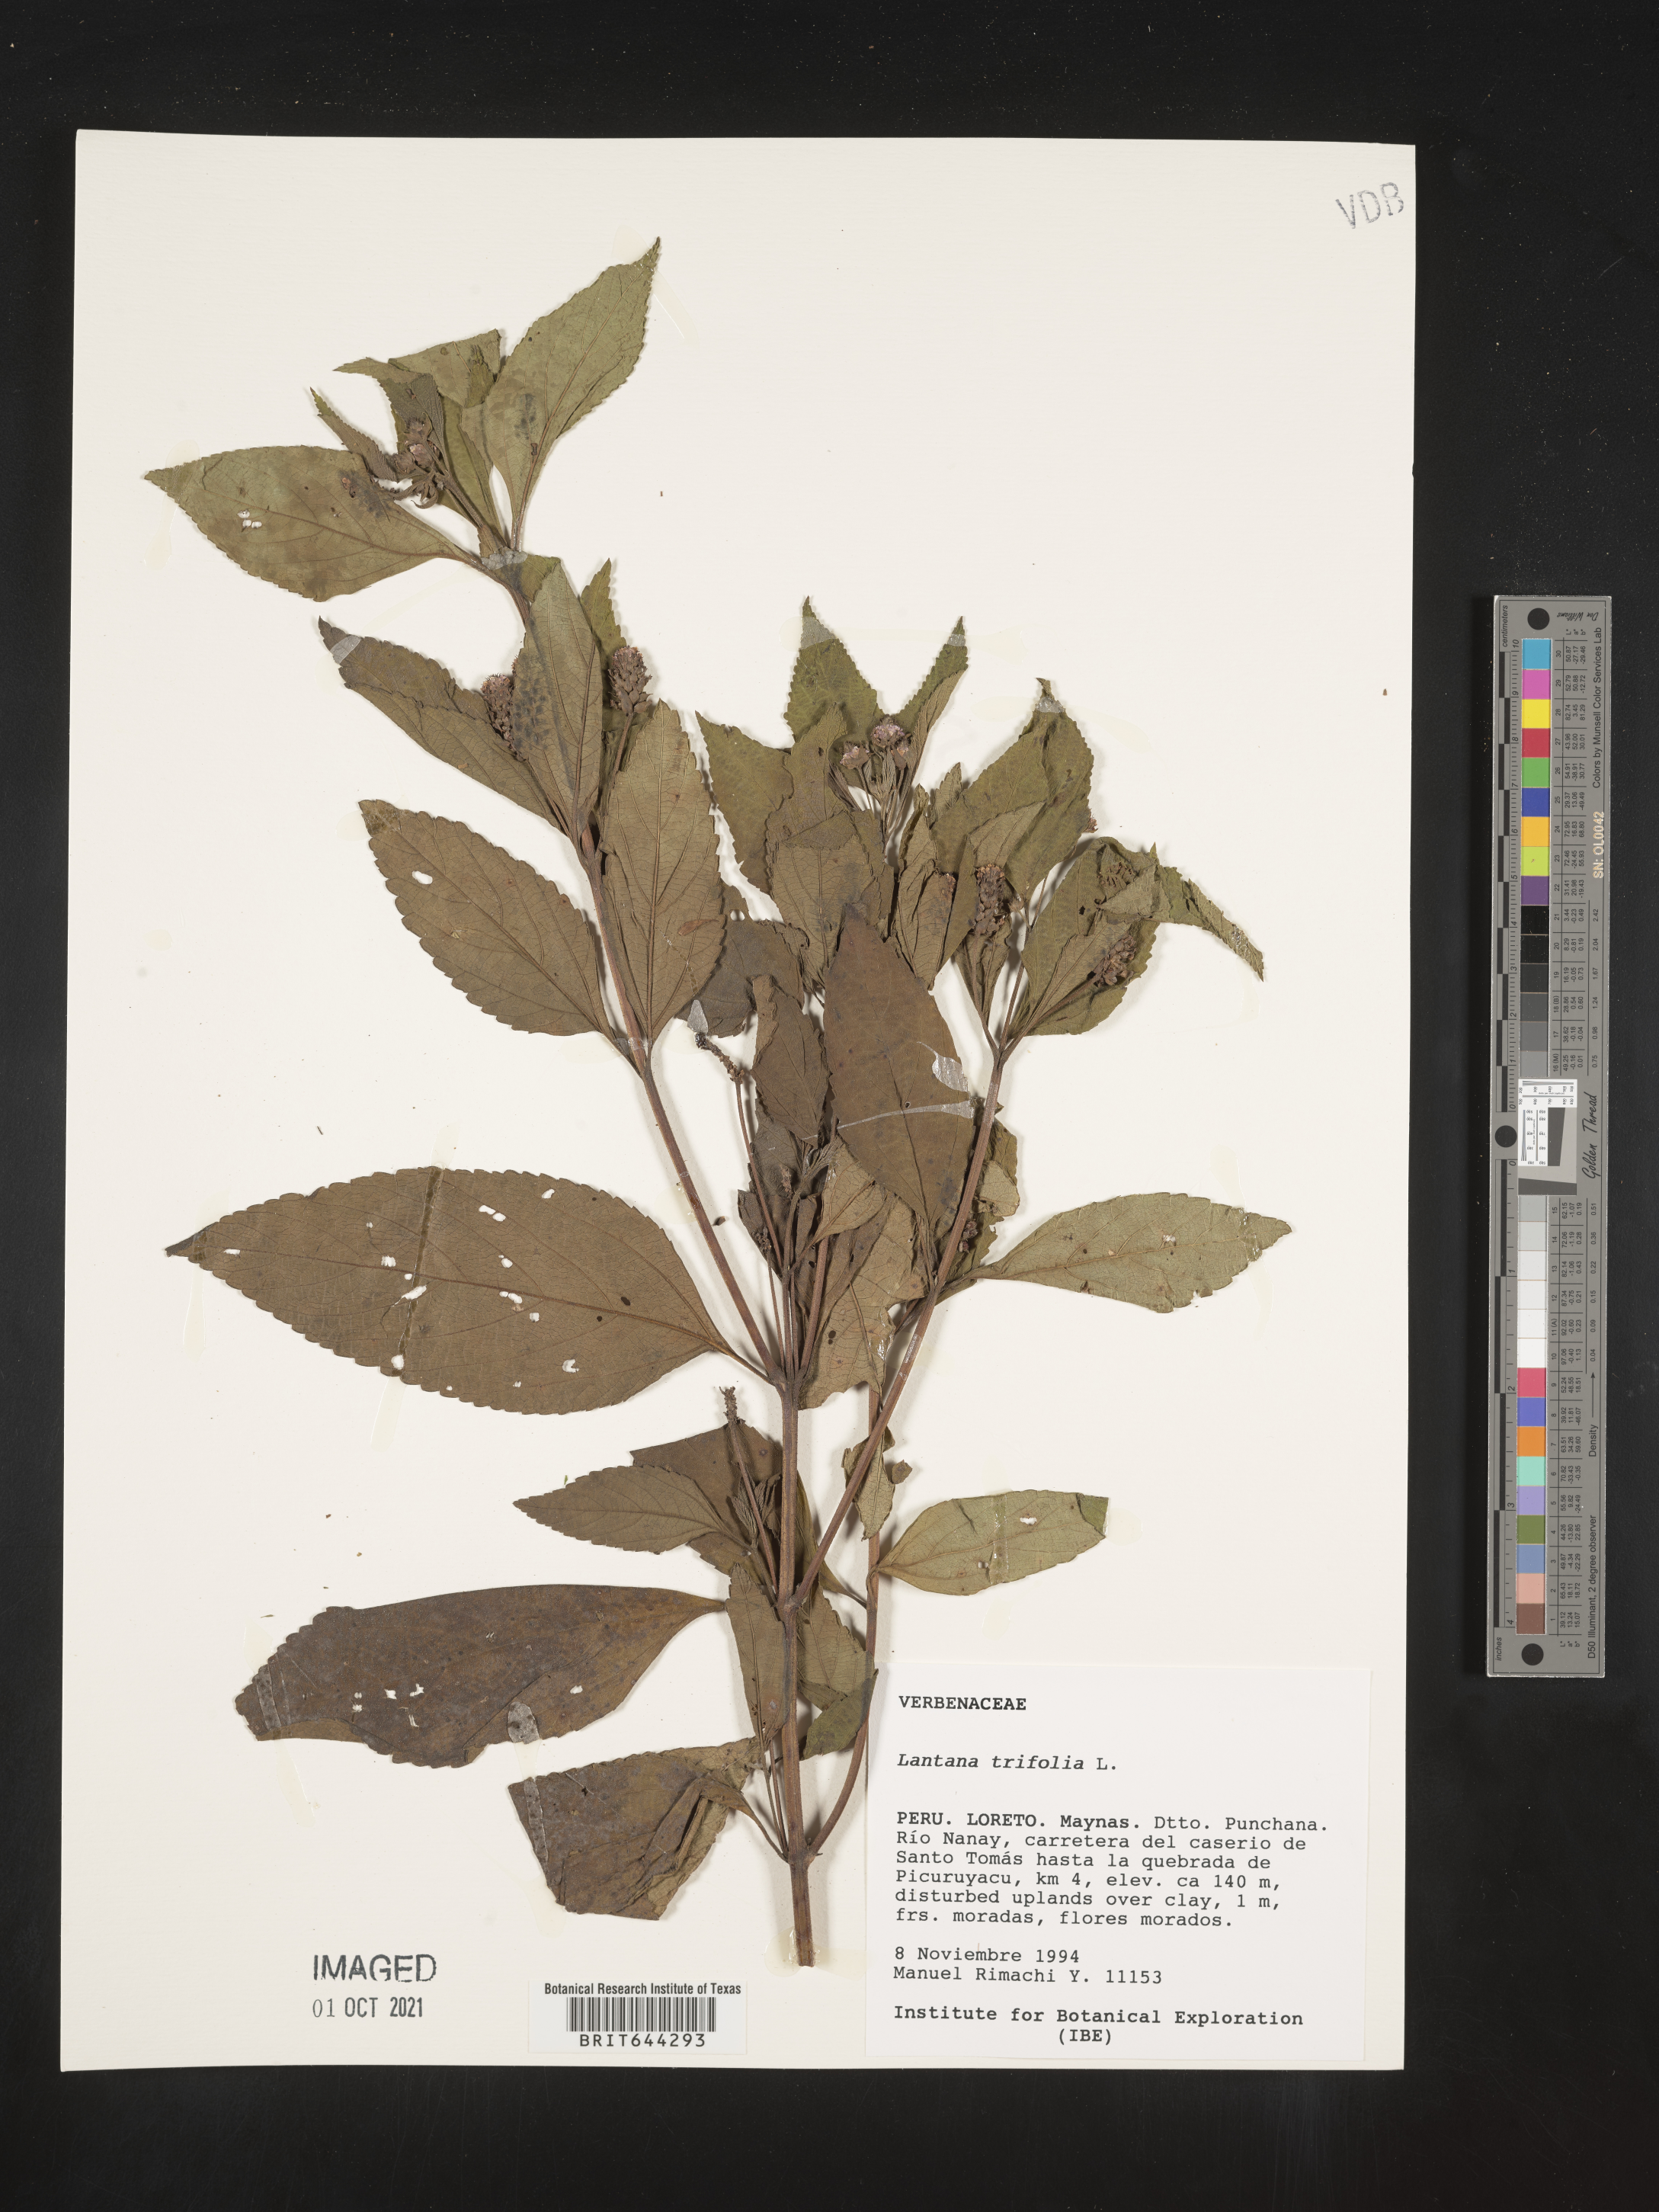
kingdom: Plantae
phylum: Tracheophyta
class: Magnoliopsida
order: Lamiales
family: Verbenaceae
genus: Lantana
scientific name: Lantana
